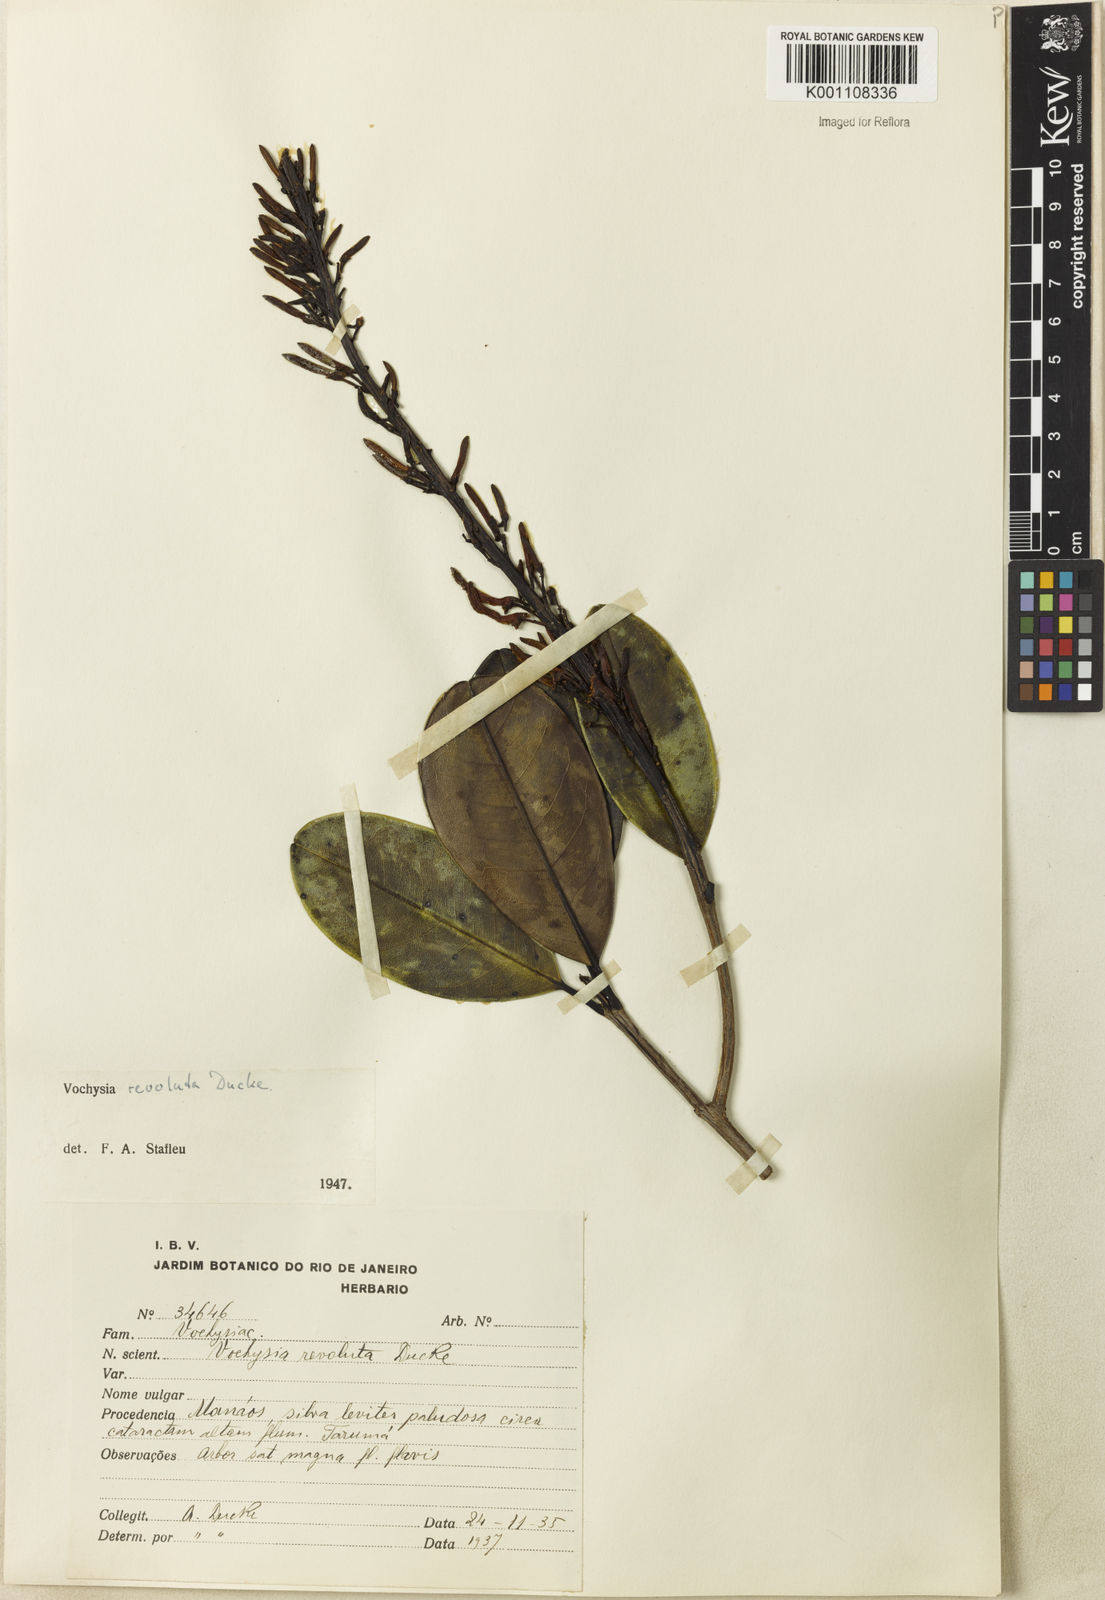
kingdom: Plantae
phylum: Tracheophyta
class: Magnoliopsida
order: Myrtales
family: Vochysiaceae
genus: Vochysia
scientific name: Vochysia revoluta
